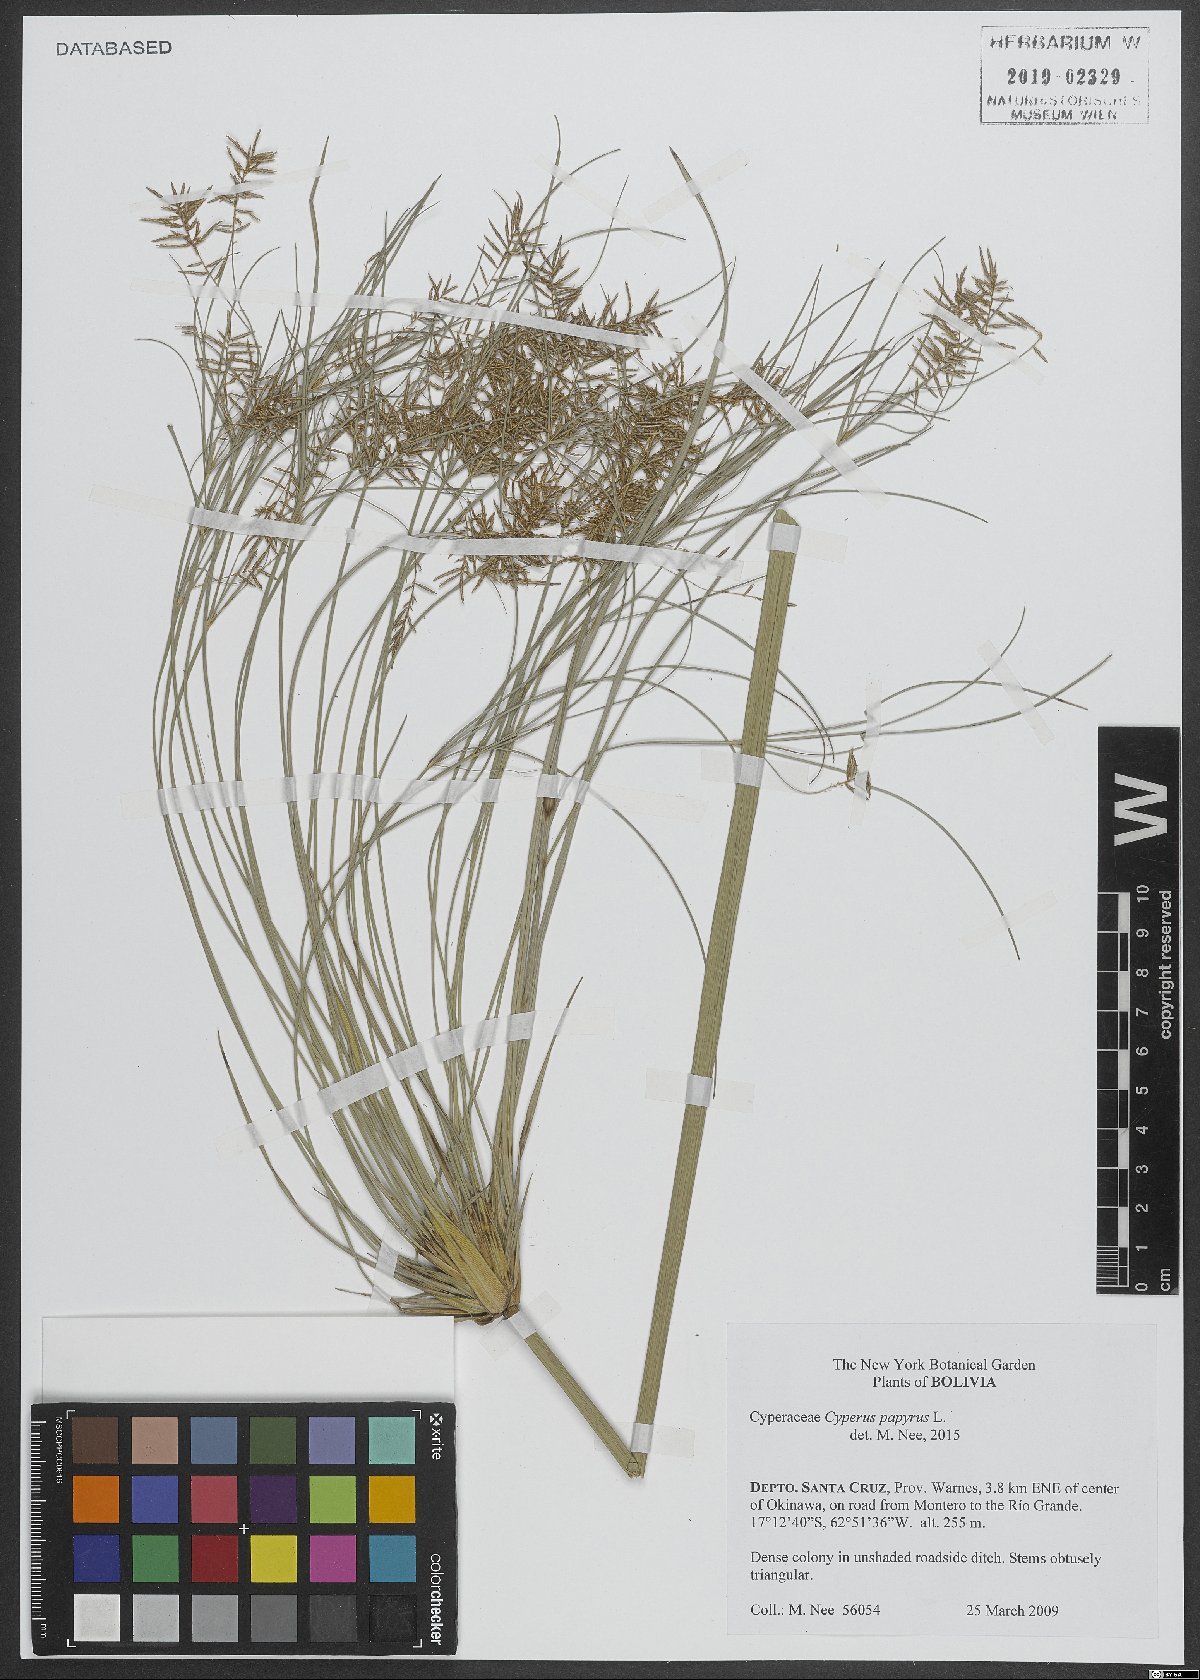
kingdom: Plantae
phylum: Tracheophyta
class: Liliopsida
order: Poales
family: Cyperaceae
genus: Cyperus
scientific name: Cyperus papyrus
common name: Papyrus
